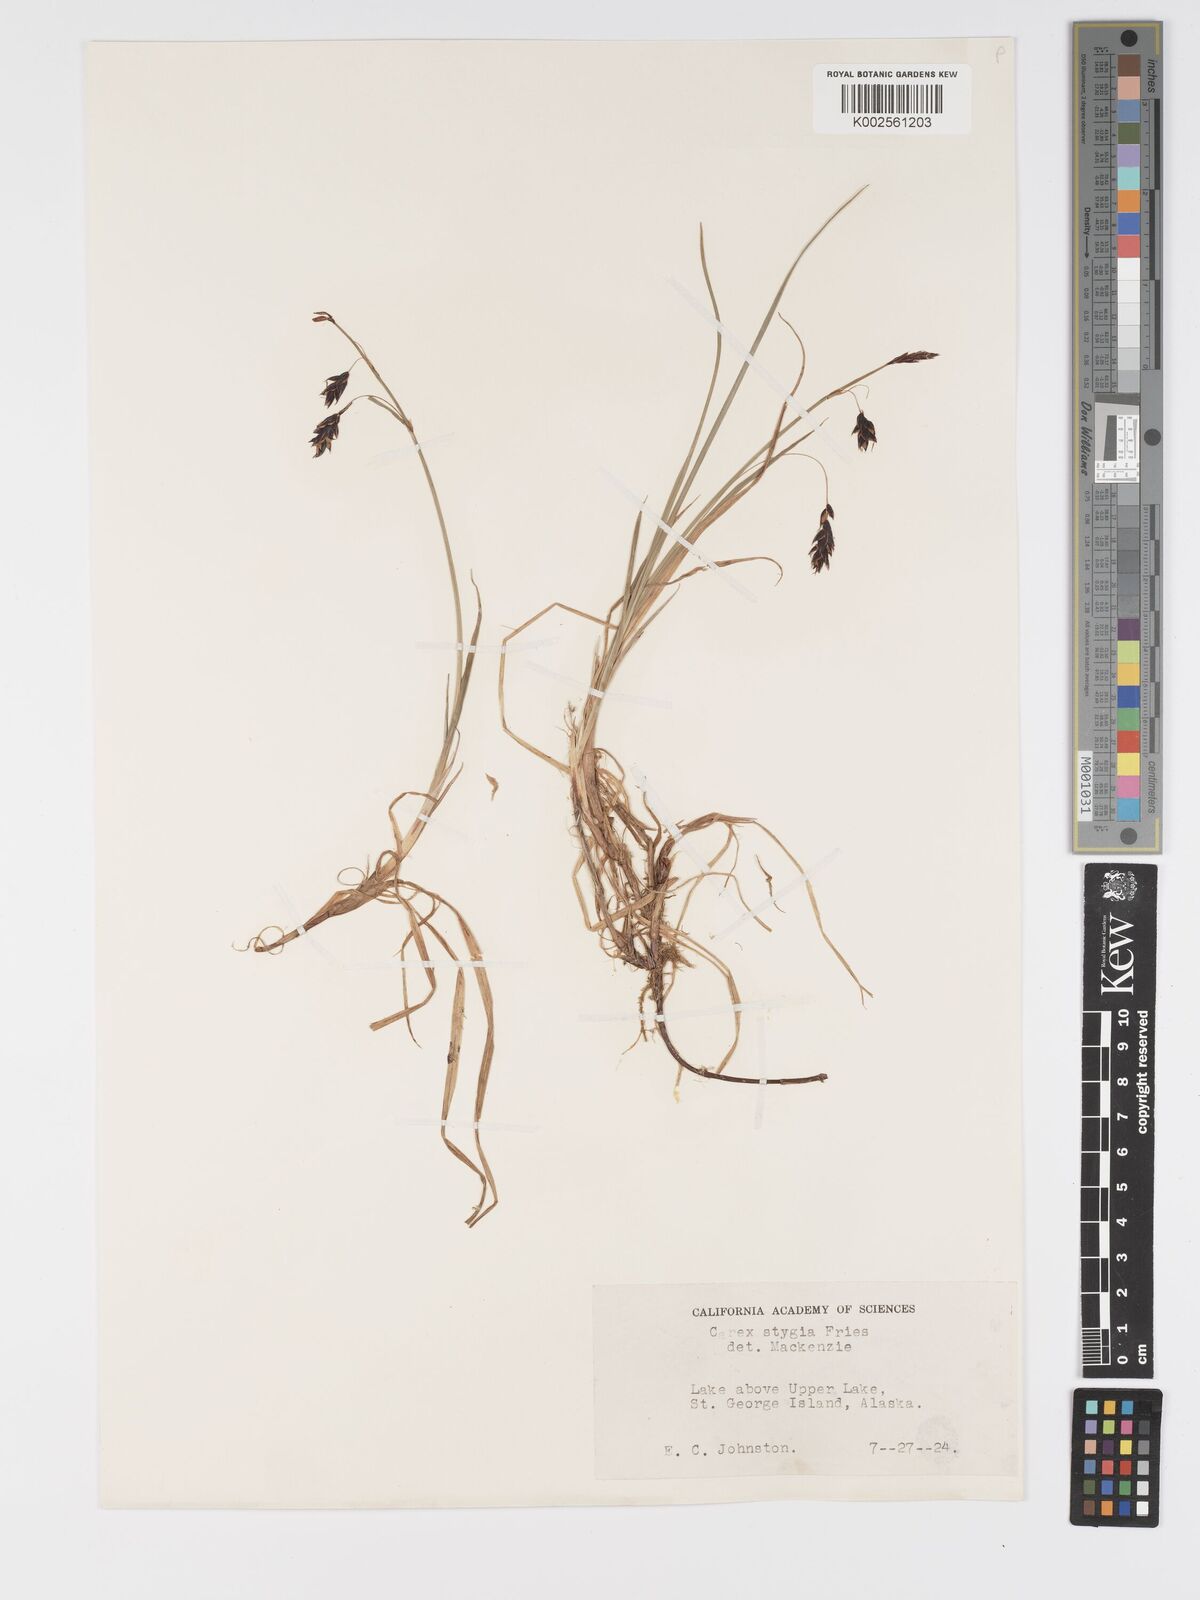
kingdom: Plantae
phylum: Tracheophyta
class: Liliopsida
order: Poales
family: Cyperaceae
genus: Carex
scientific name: Carex stygia
